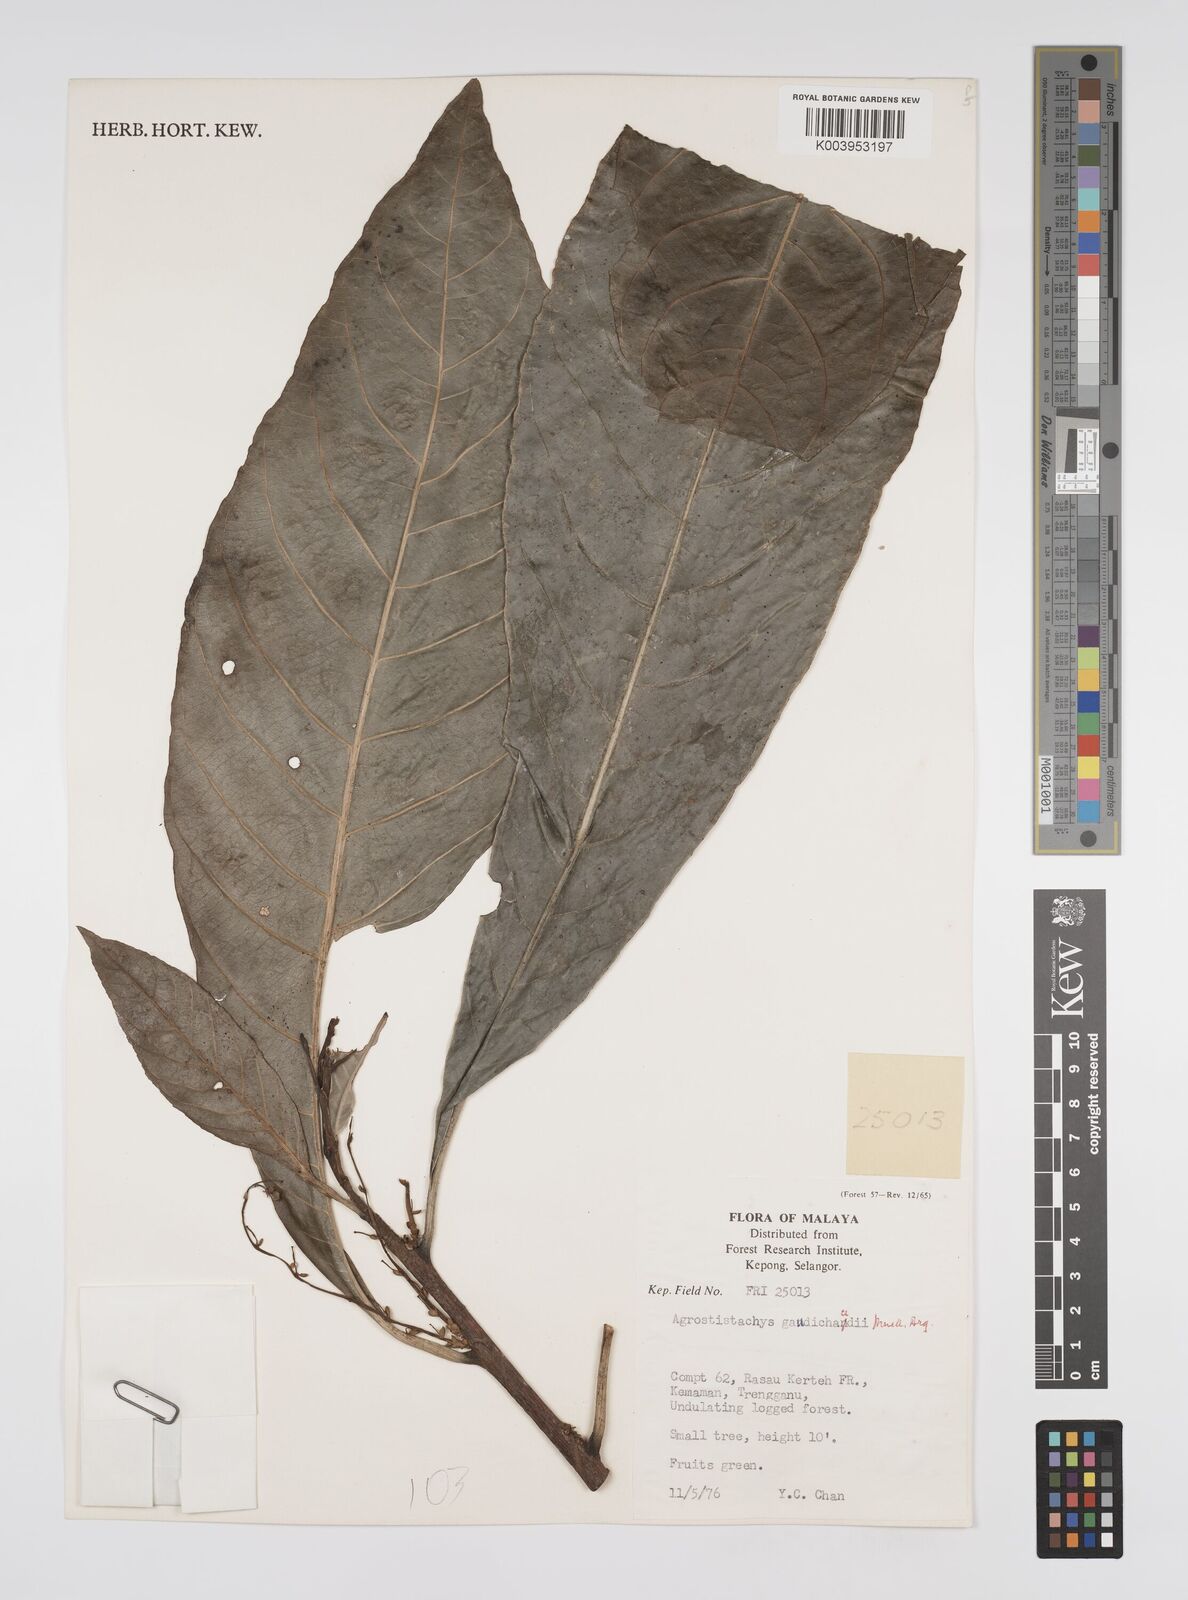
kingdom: Plantae
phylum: Tracheophyta
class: Magnoliopsida
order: Malpighiales
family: Euphorbiaceae
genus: Agrostistachys
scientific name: Agrostistachys gaudichaudii
